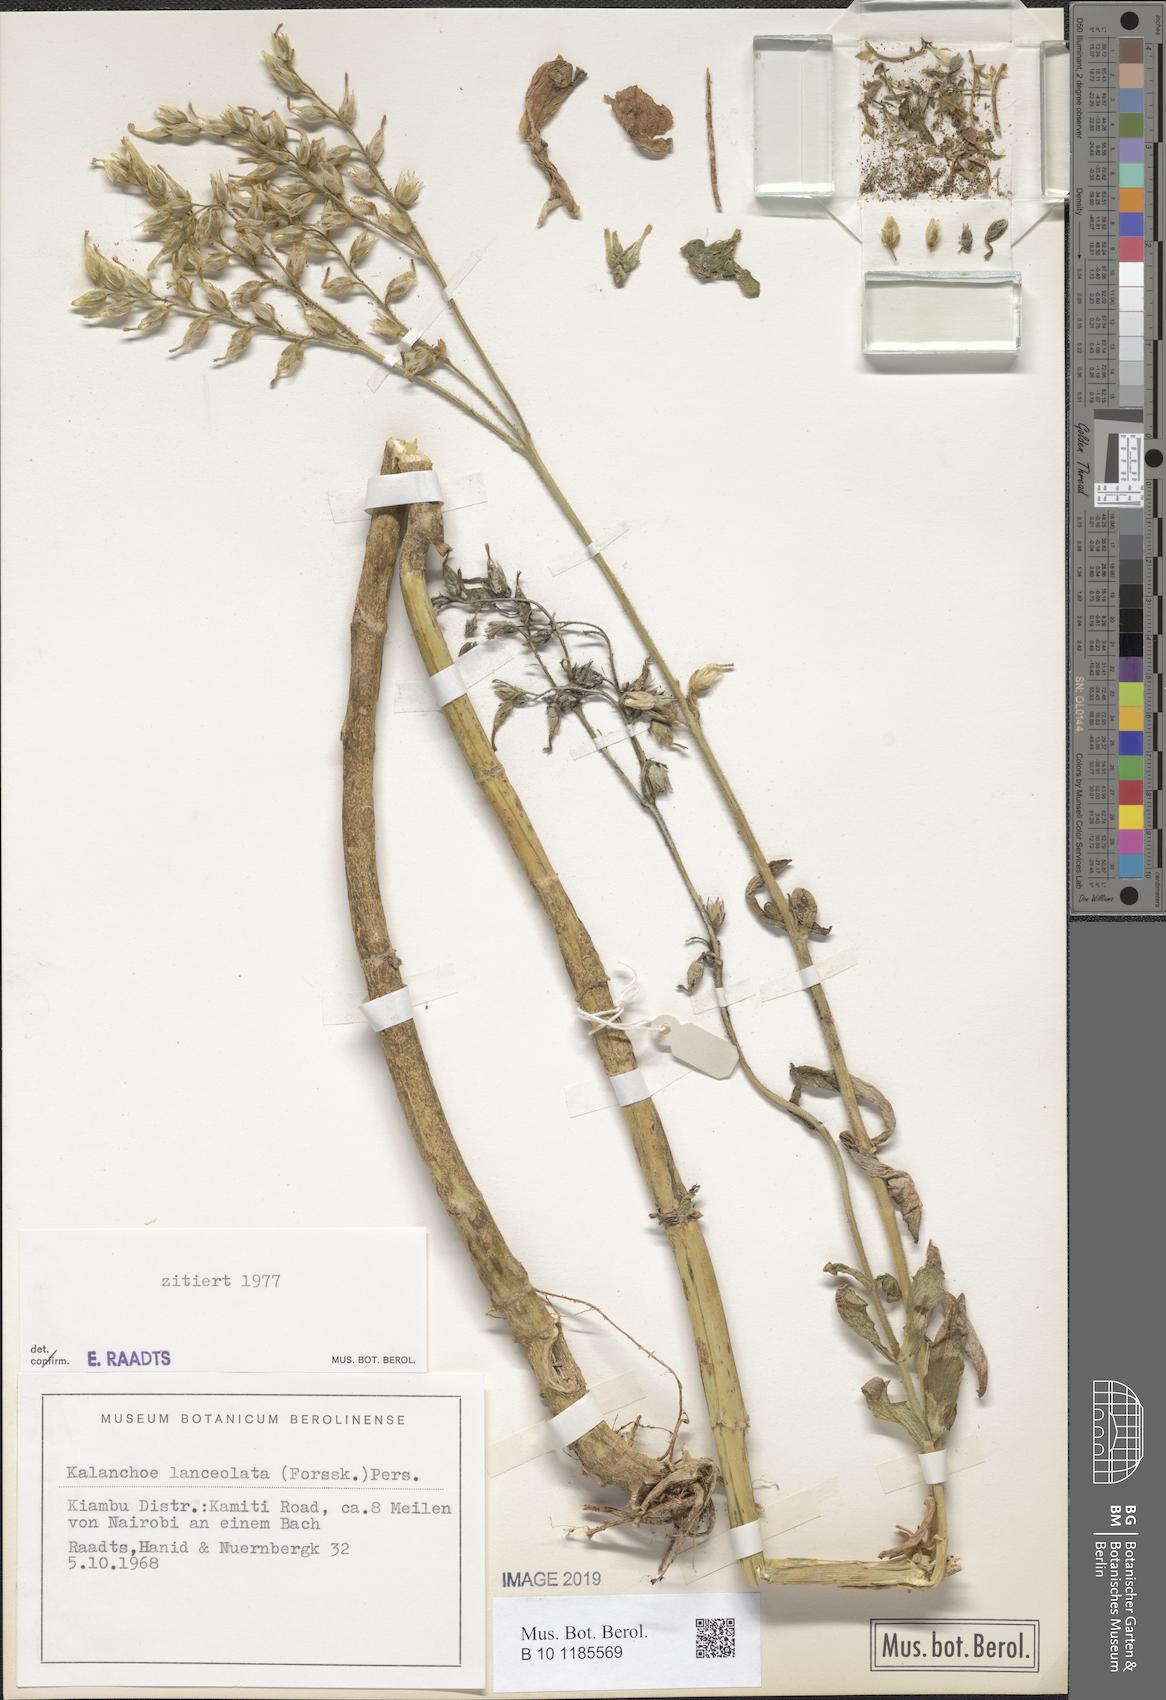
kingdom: Plantae
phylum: Tracheophyta
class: Magnoliopsida
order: Saxifragales
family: Crassulaceae
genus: Kalanchoe
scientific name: Kalanchoe lanceolata
